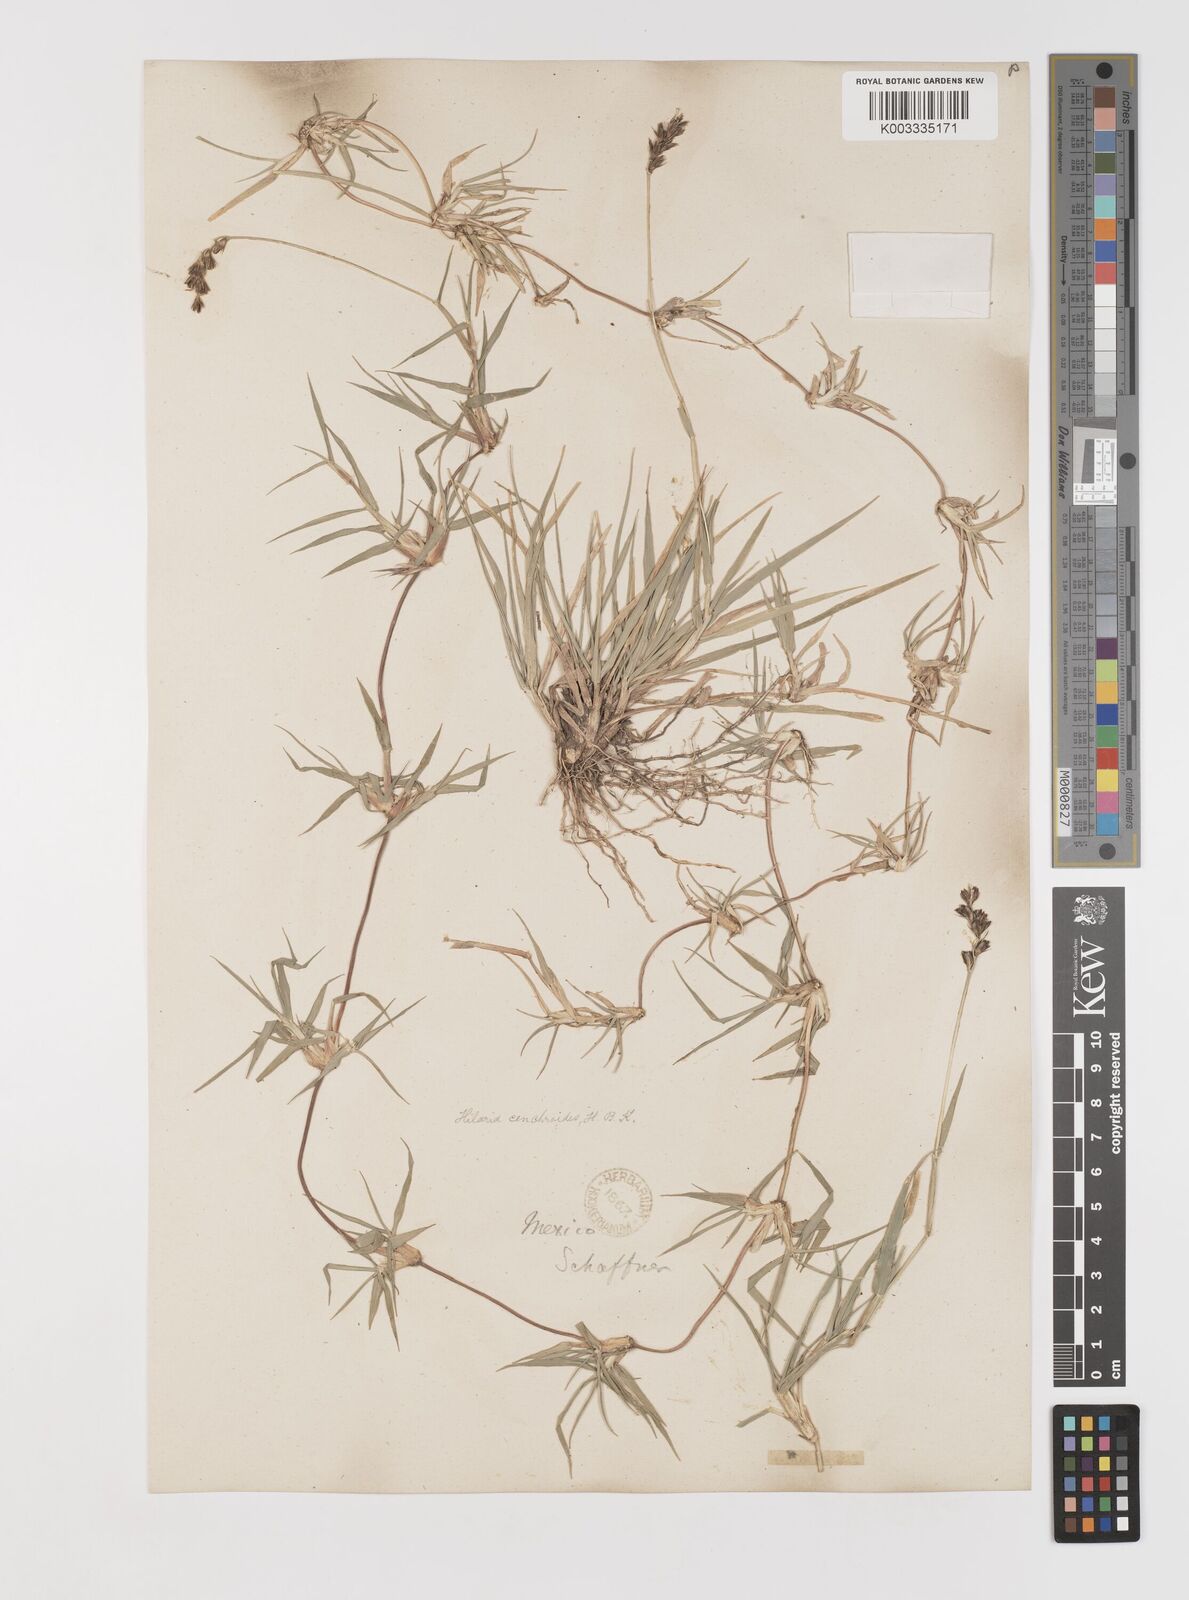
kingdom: Plantae
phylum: Tracheophyta
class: Liliopsida
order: Poales
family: Poaceae
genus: Hilaria
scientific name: Hilaria cenchroides
